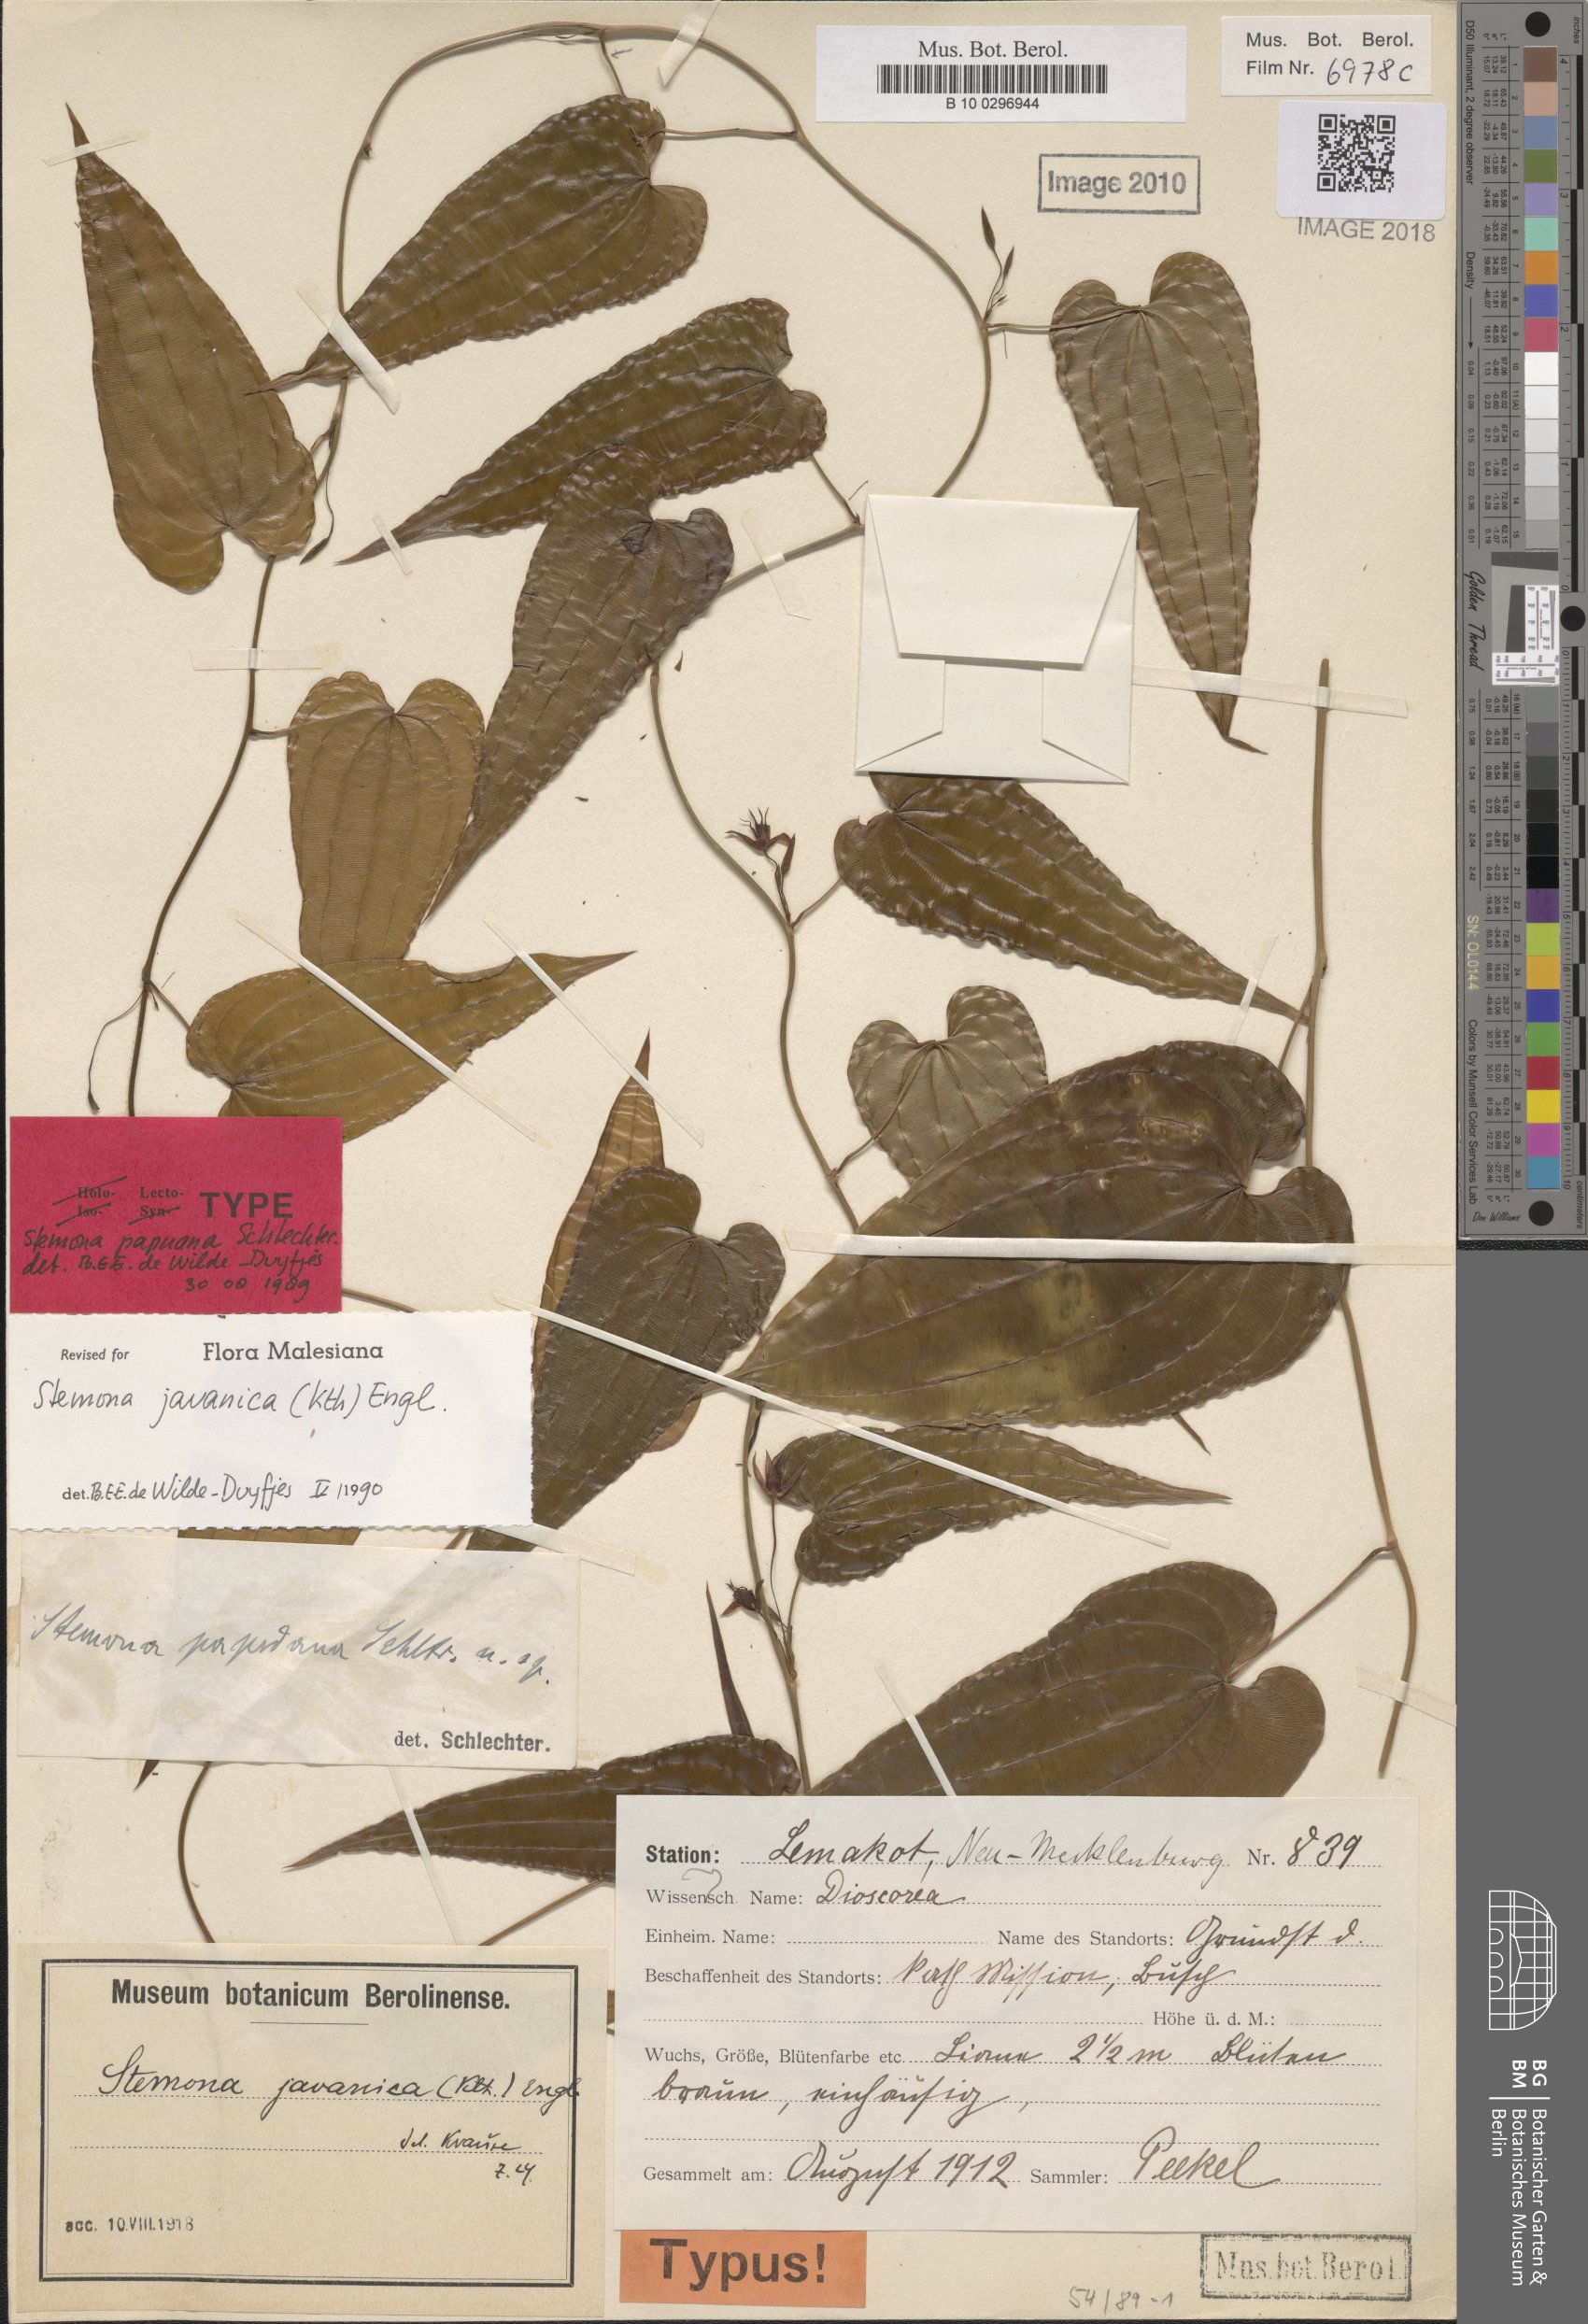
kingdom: Plantae
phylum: Tracheophyta
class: Liliopsida
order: Pandanales
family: Stemonaceae
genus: Stemona
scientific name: Stemona javanica
